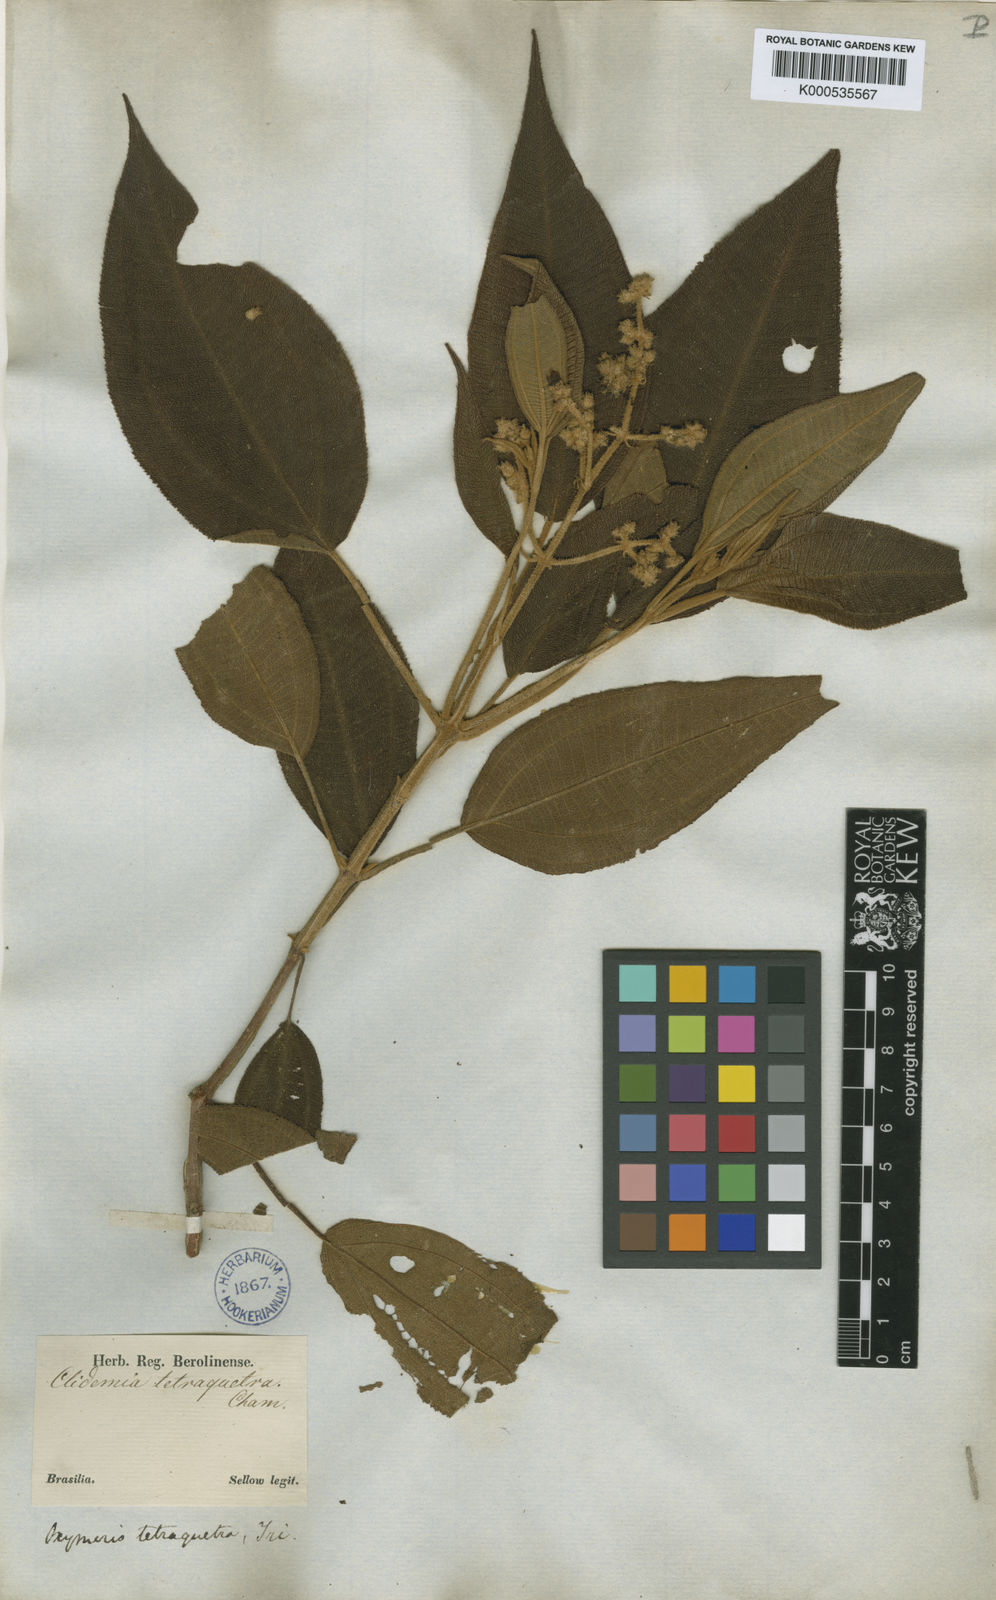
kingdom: Plantae
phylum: Tracheophyta
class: Magnoliopsida
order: Myrtales
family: Melastomataceae
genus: Miconia
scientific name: Miconia tetraquetra
